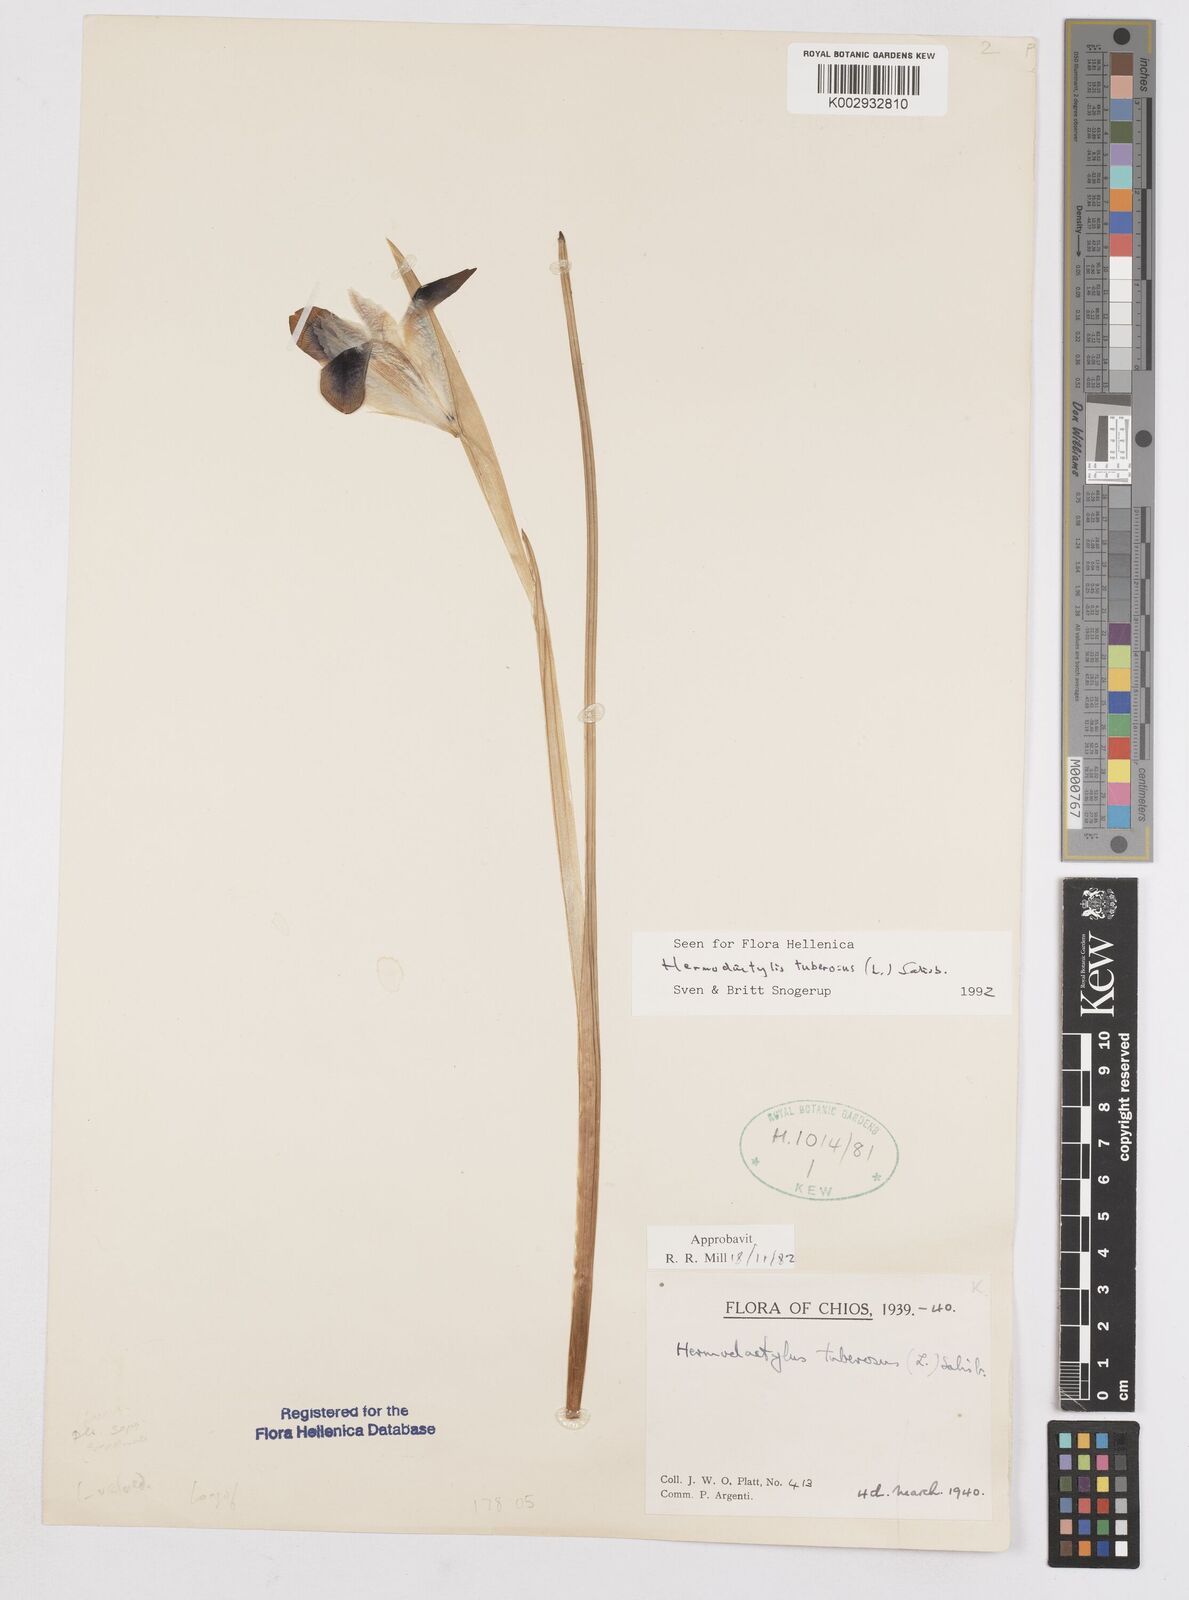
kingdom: Plantae
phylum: Tracheophyta
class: Liliopsida
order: Asparagales
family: Iridaceae
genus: Iris
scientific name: Iris
